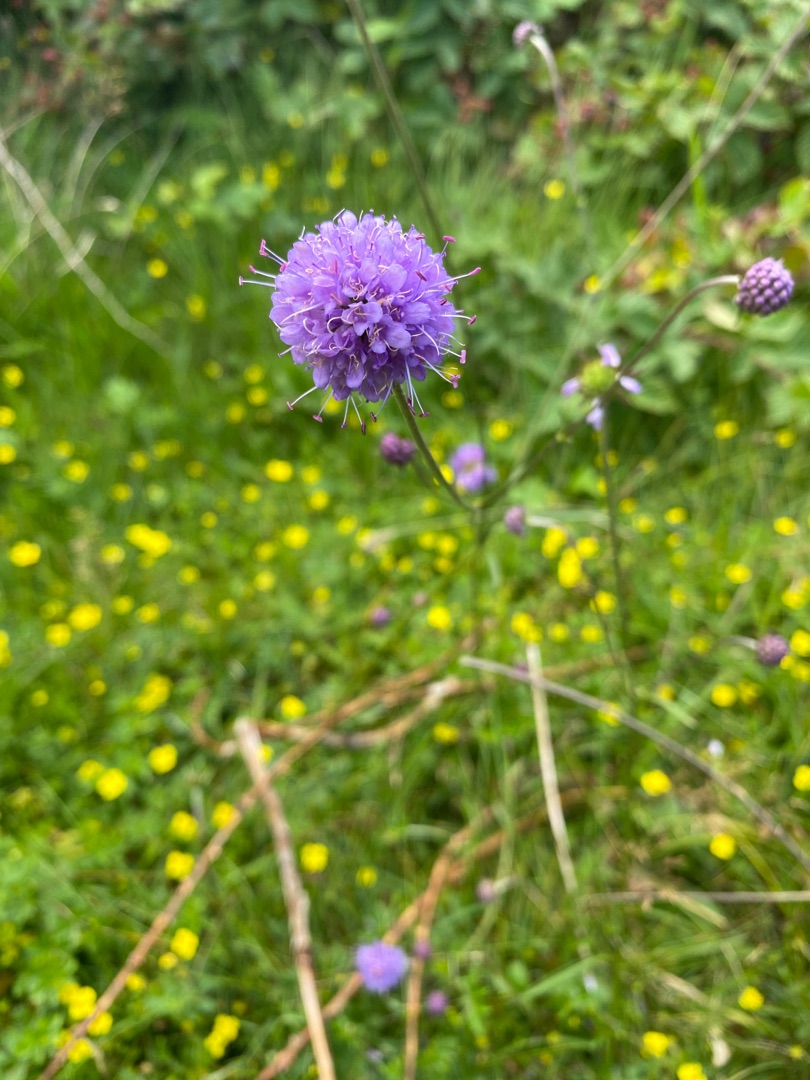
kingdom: Plantae
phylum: Tracheophyta
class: Magnoliopsida
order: Dipsacales
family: Caprifoliaceae
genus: Succisa
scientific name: Succisa pratensis
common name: Djævelsbid
